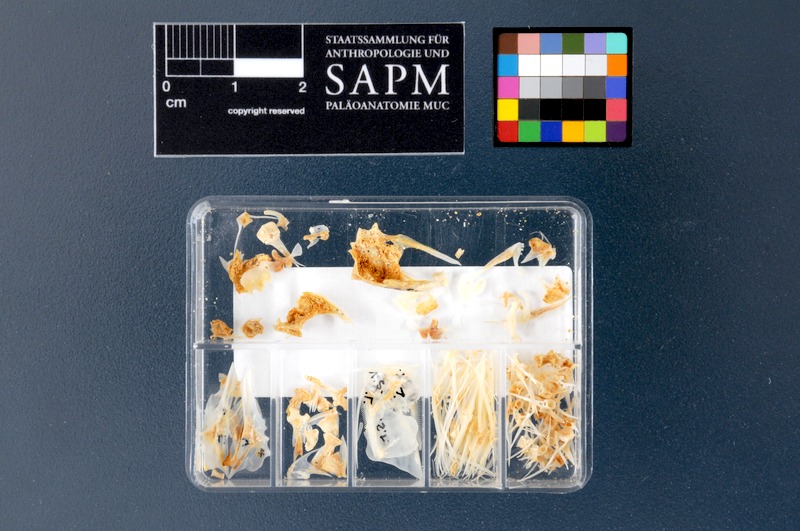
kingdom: Animalia
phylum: Chordata
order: Perciformes
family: Labridae
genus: Symphodus
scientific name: Symphodus roissali
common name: Five-spotted wrasse
